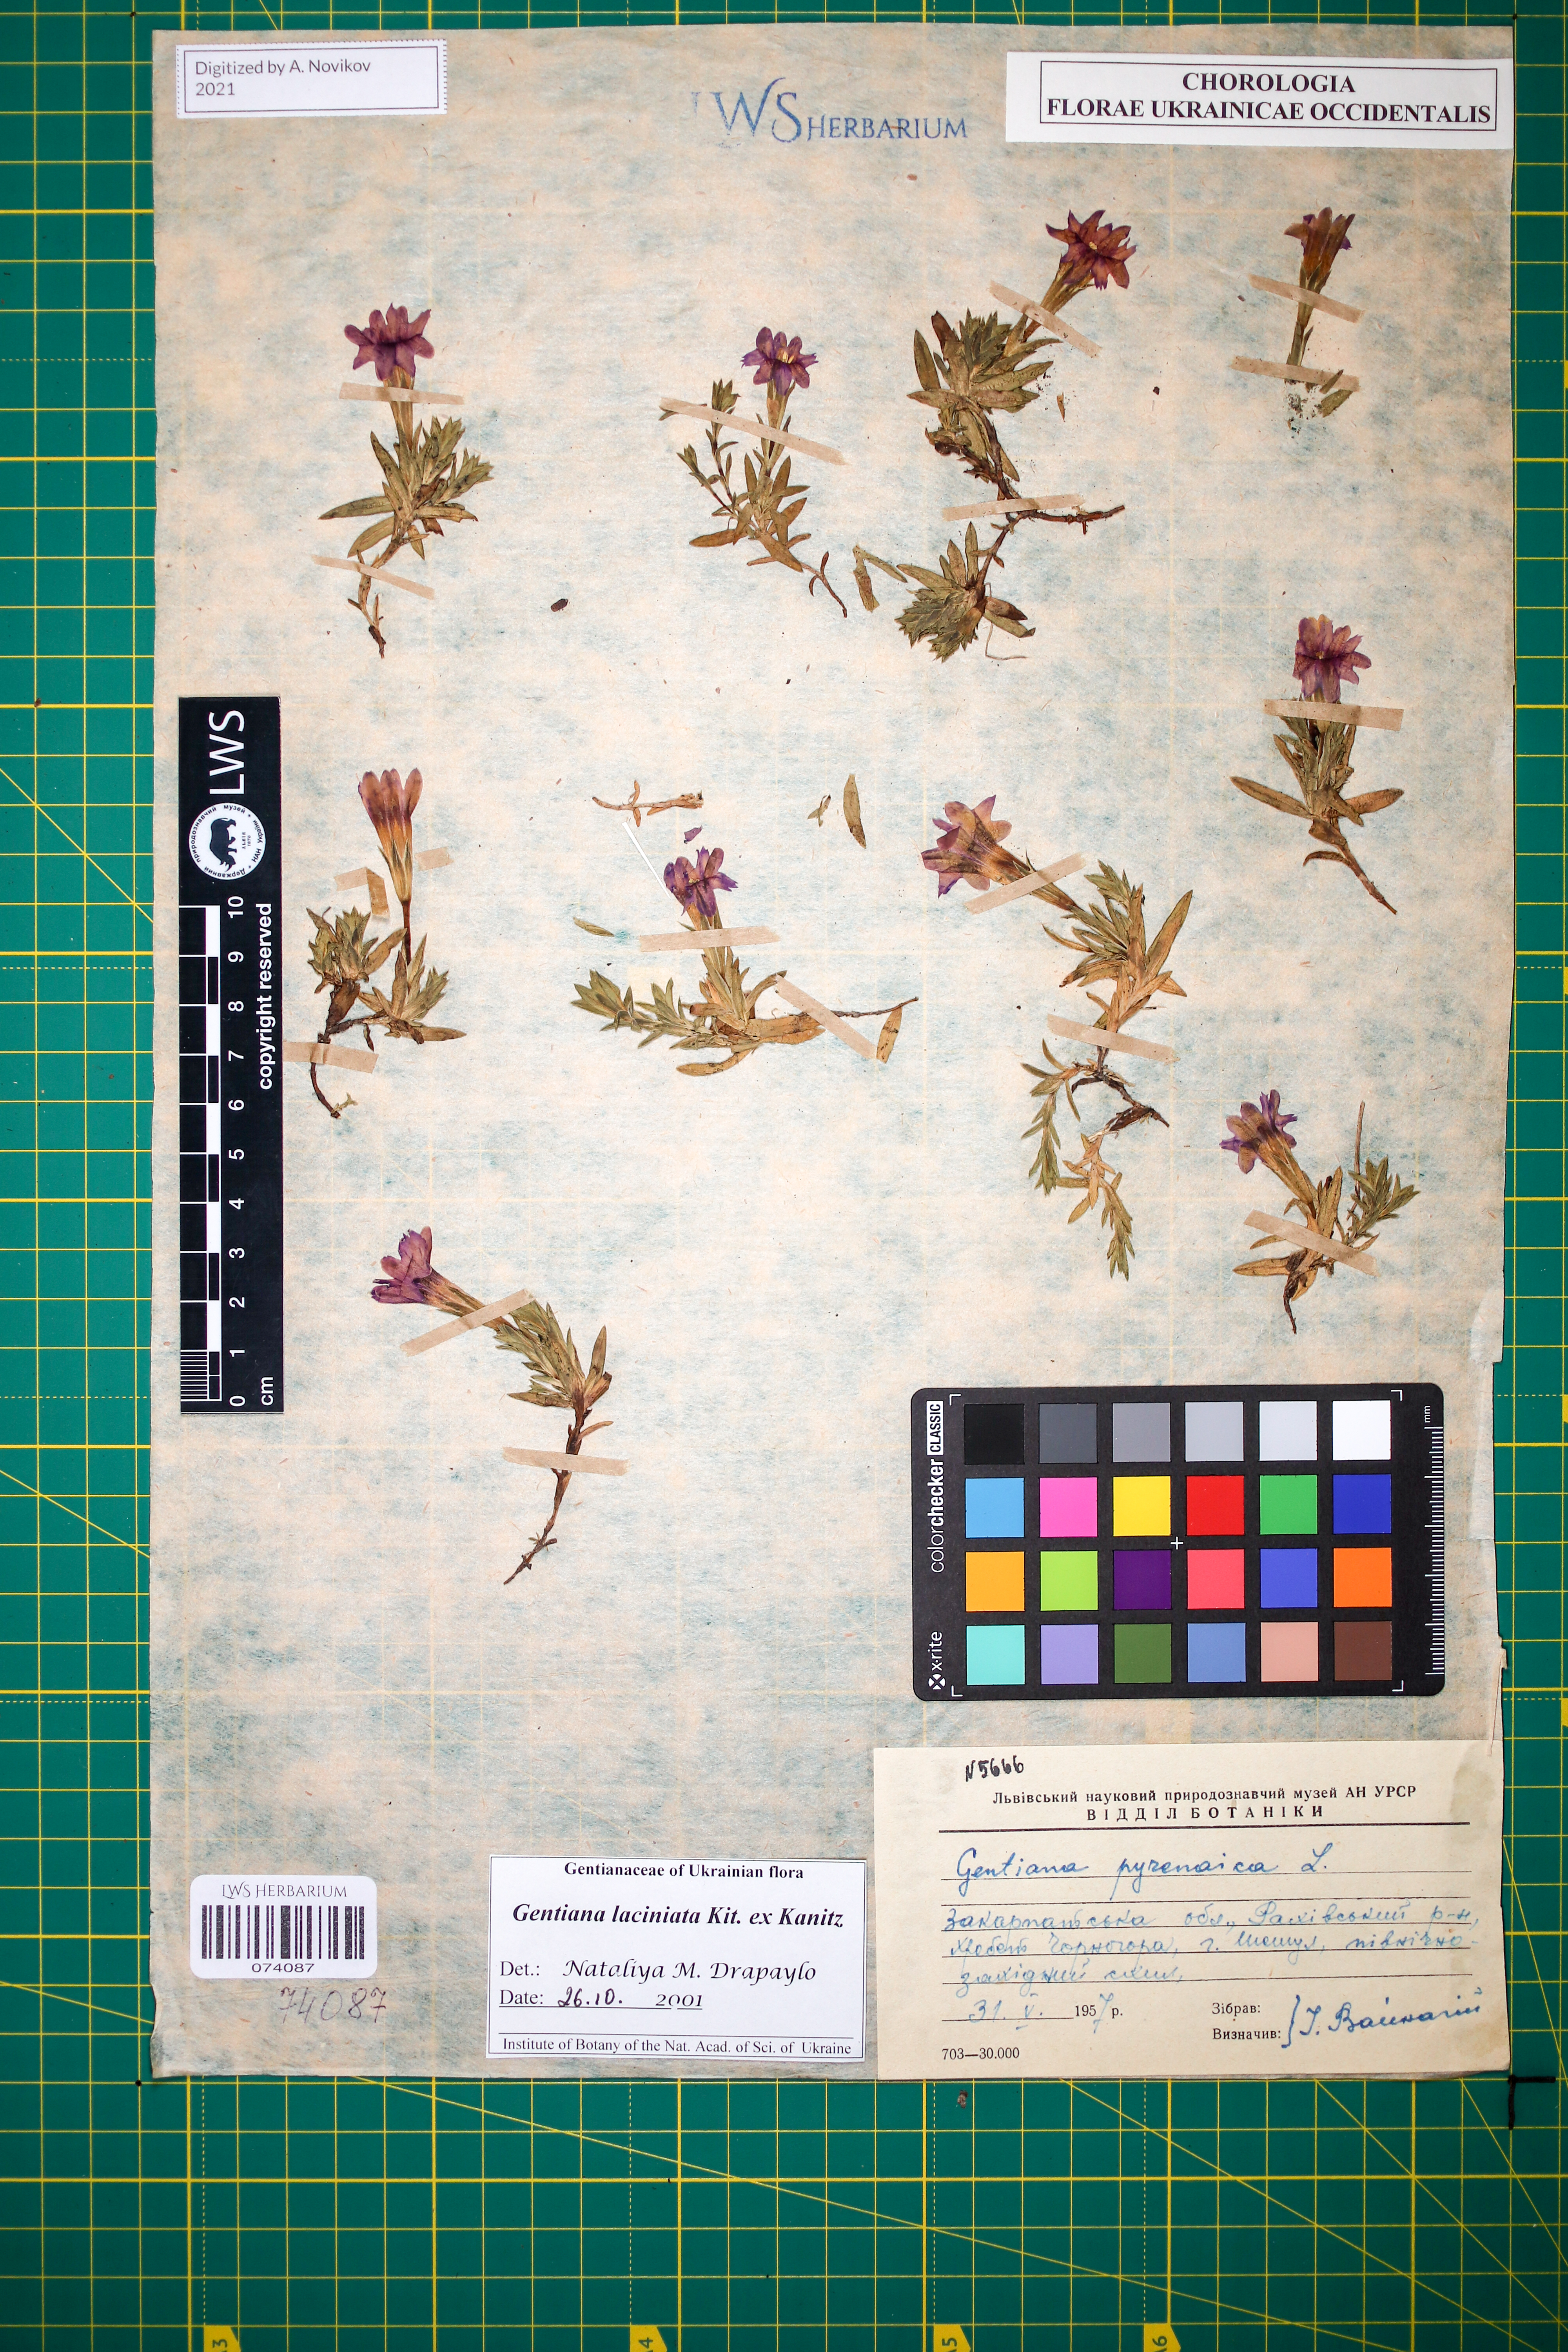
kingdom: Plantae
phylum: Tracheophyta
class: Magnoliopsida
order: Gentianales
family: Gentianaceae
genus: Gentiana
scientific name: Gentiana laciniata
